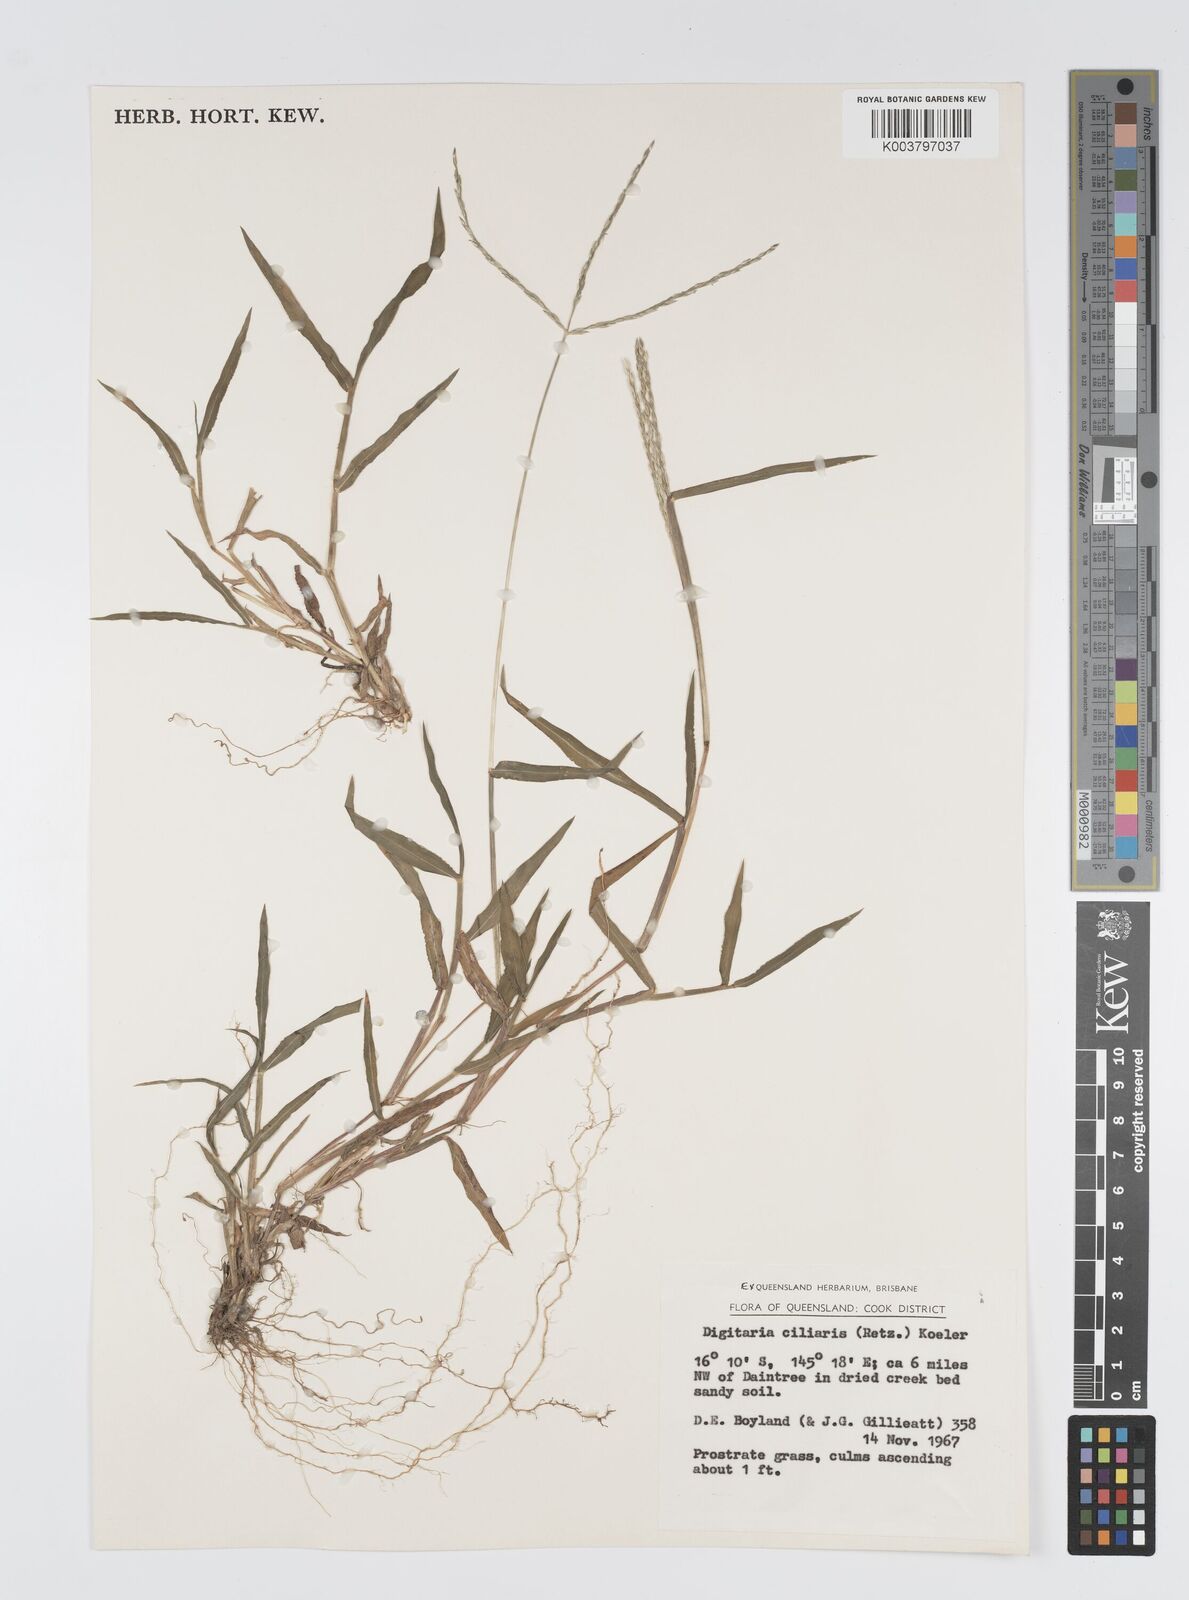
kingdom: Plantae
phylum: Tracheophyta
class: Liliopsida
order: Poales
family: Poaceae
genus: Digitaria
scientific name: Digitaria ciliaris
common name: Tropical finger-grass
